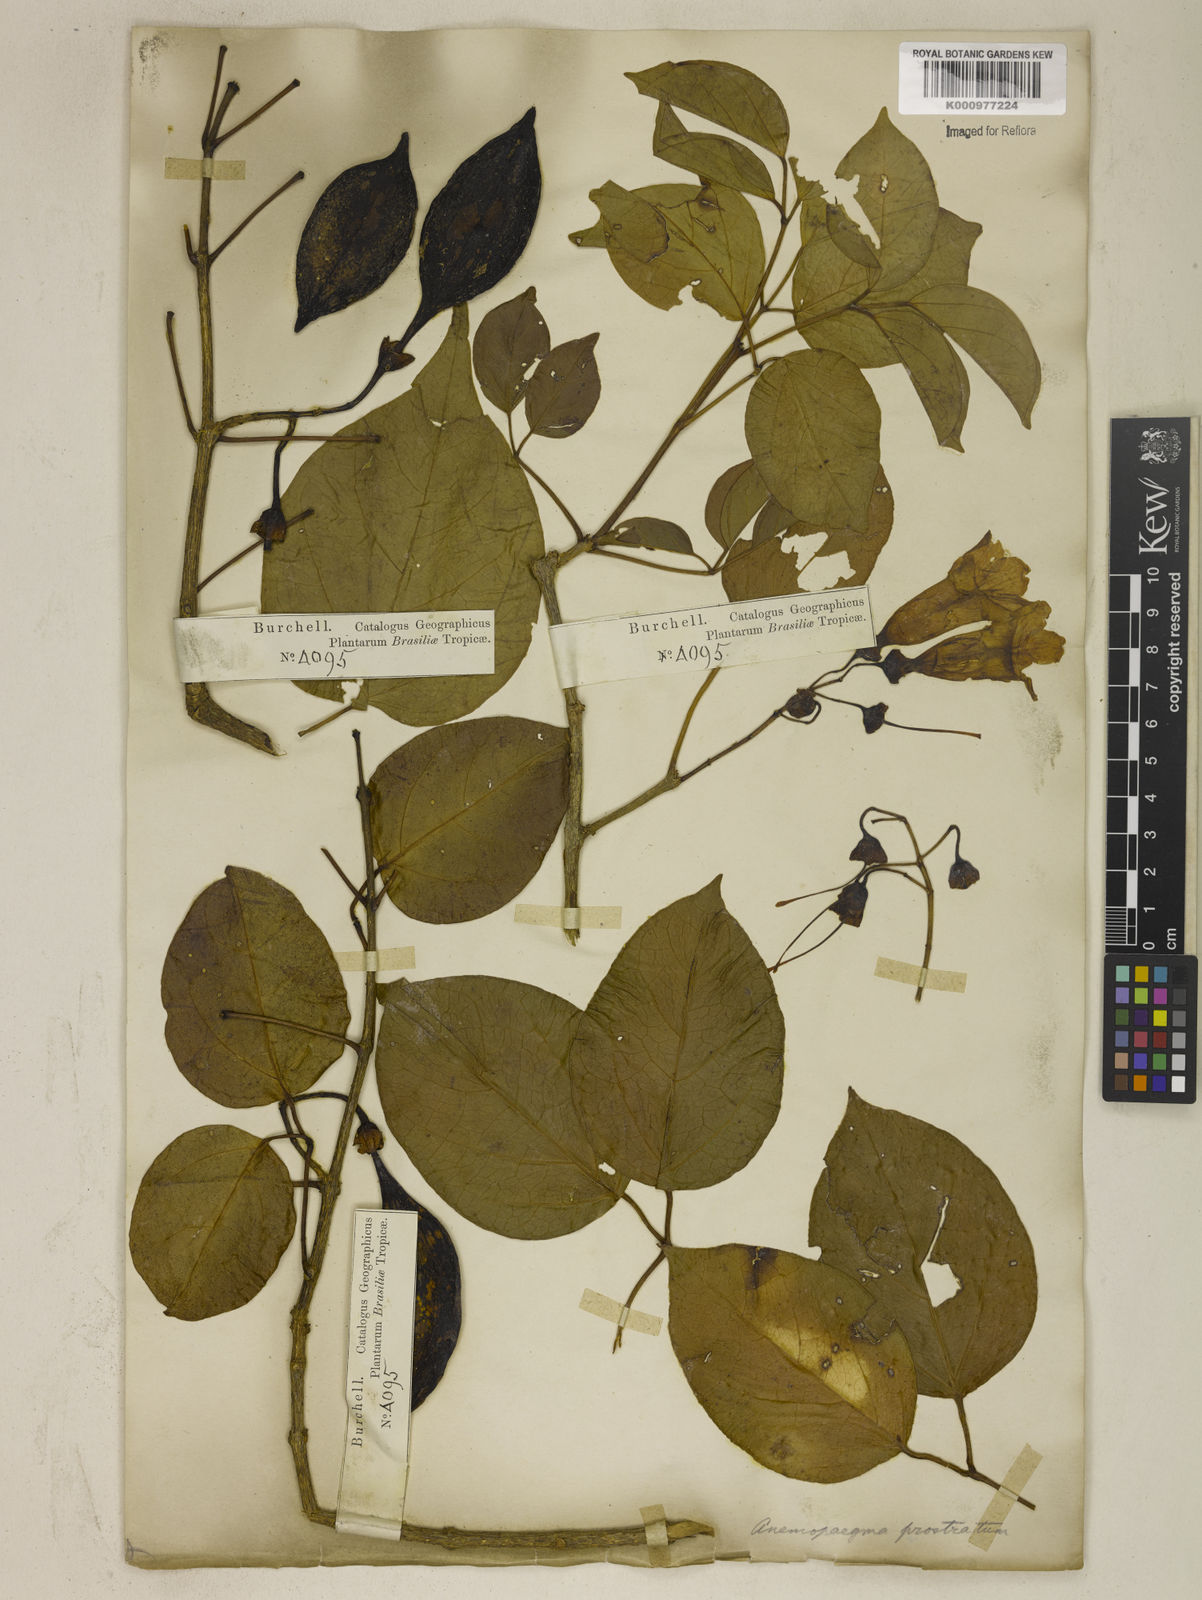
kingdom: Plantae
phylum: Tracheophyta
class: Magnoliopsida
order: Lamiales
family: Bignoniaceae
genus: Anemopaegma
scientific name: Anemopaegma prostratum
